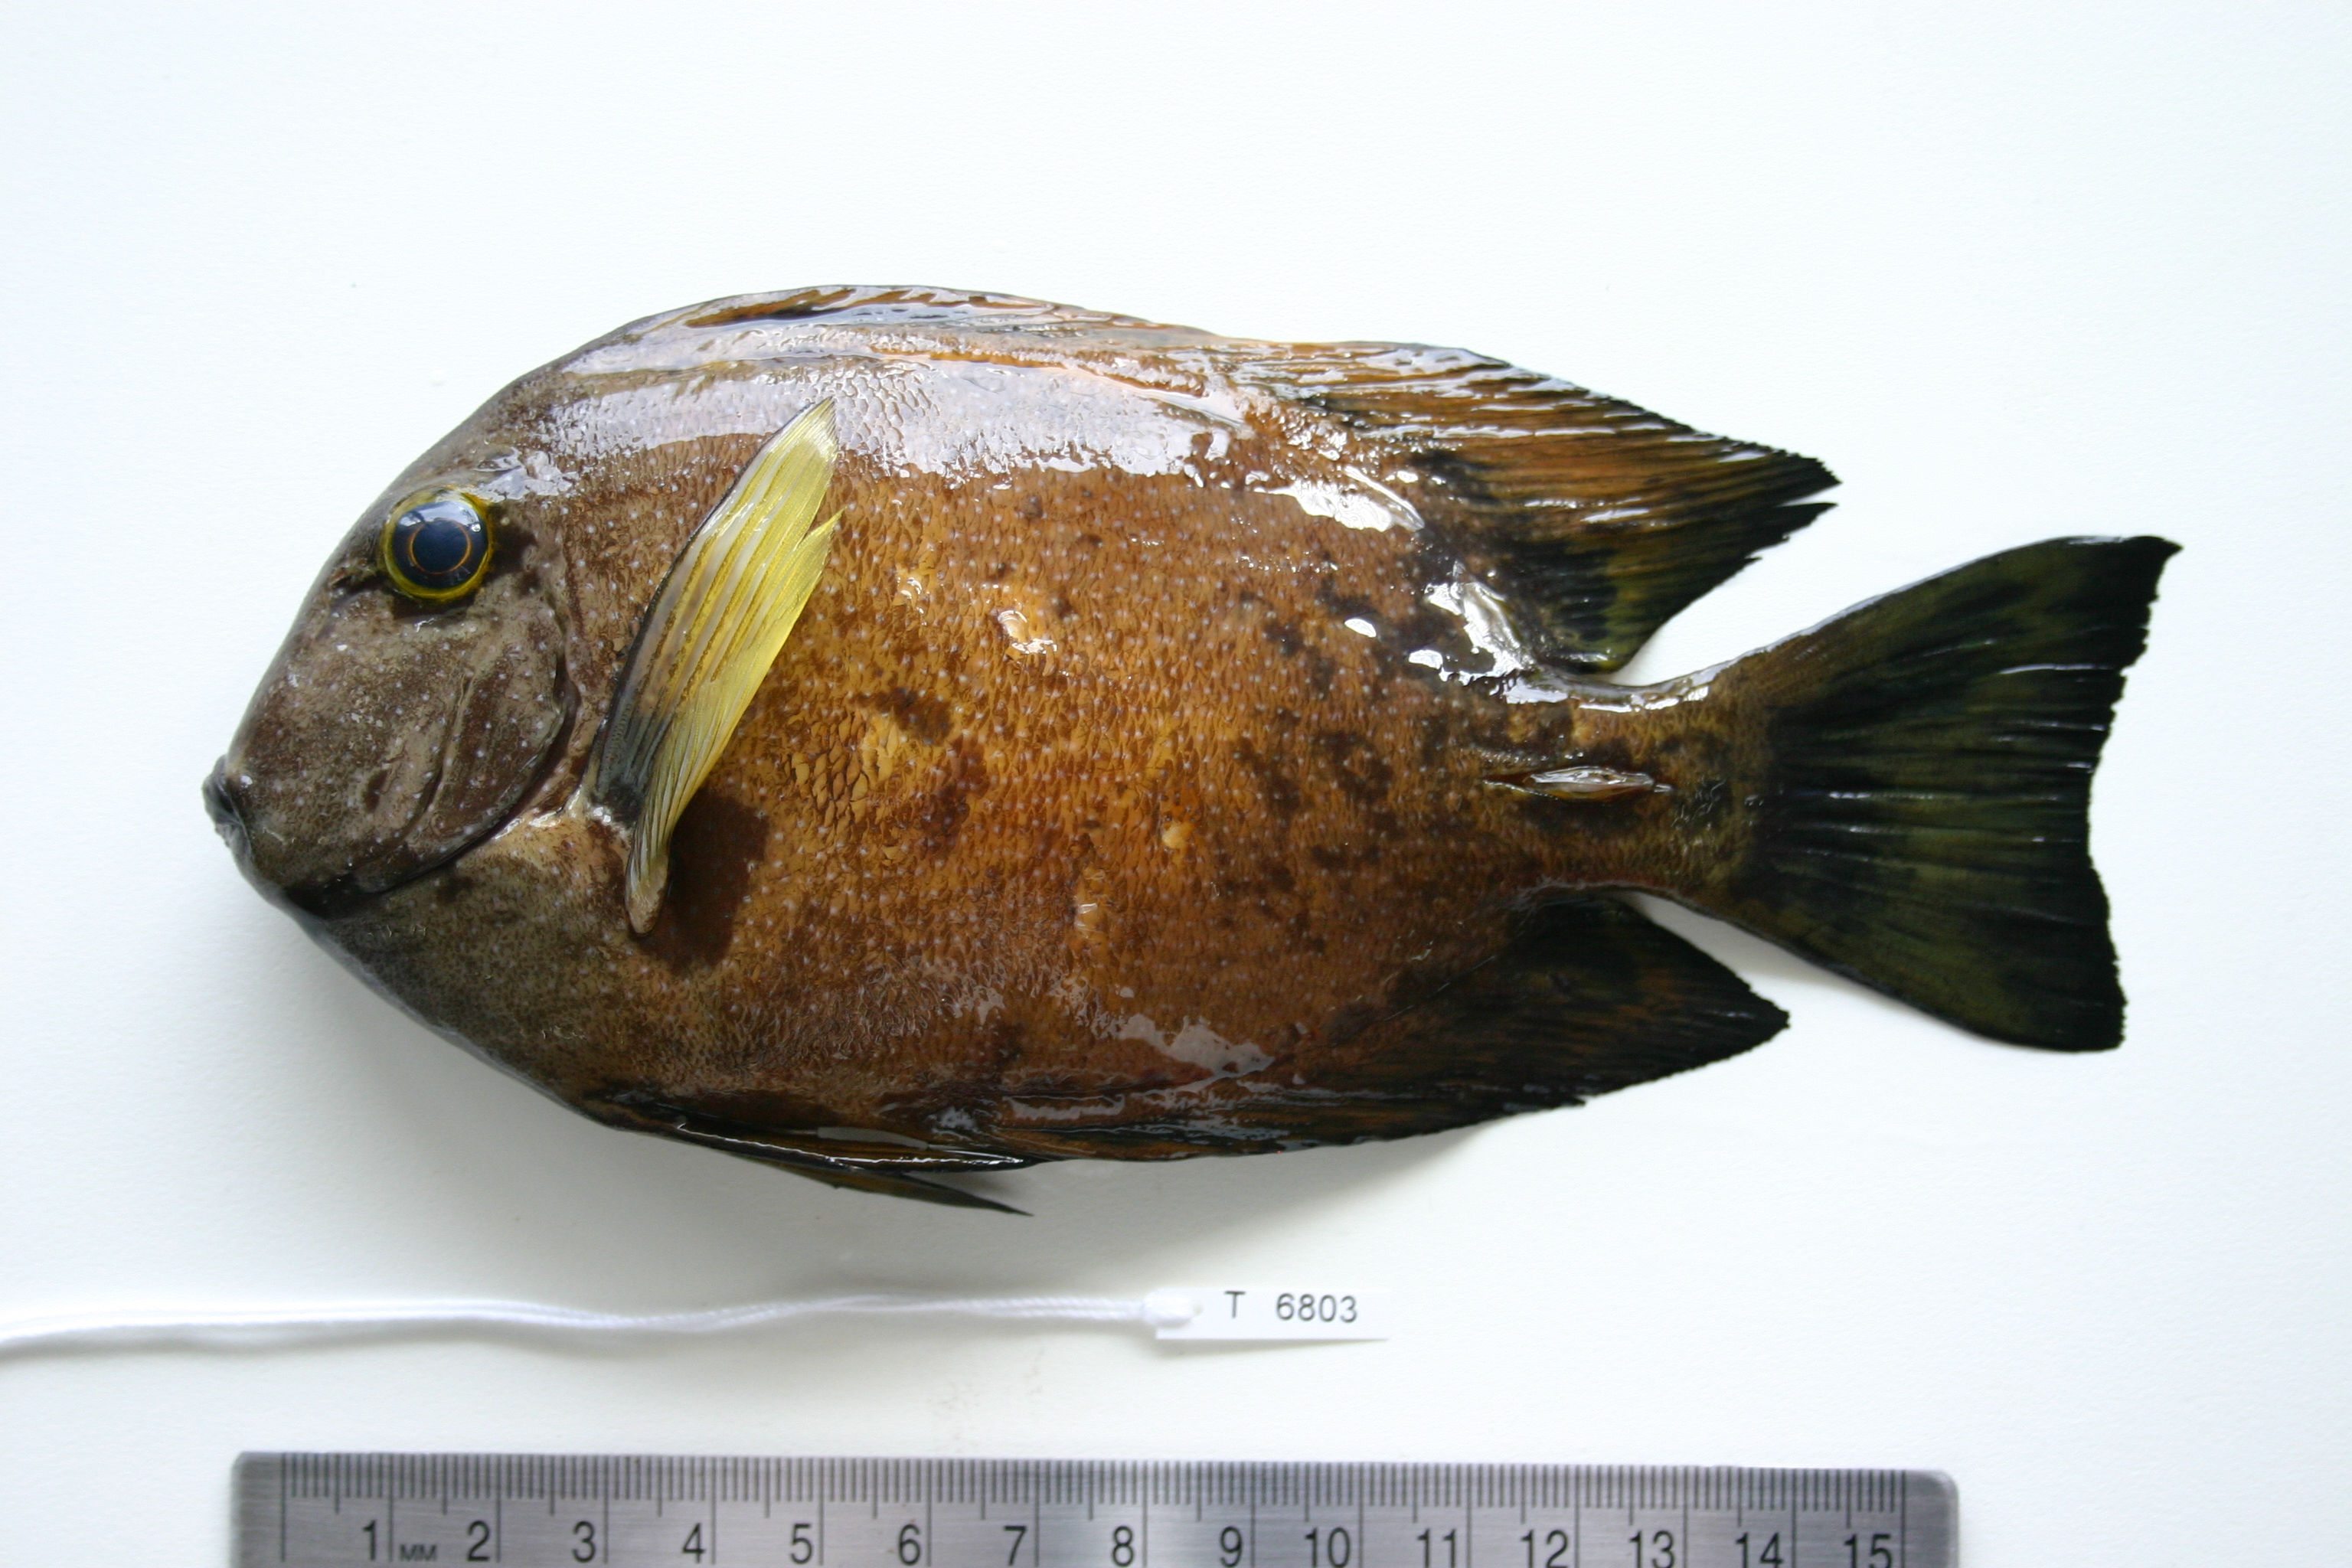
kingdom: Animalia
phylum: Chordata
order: Perciformes
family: Acanthuridae
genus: Ctenochaetus
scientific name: Ctenochaetus truncatus
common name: Indian gold-ring bristle-tooth
